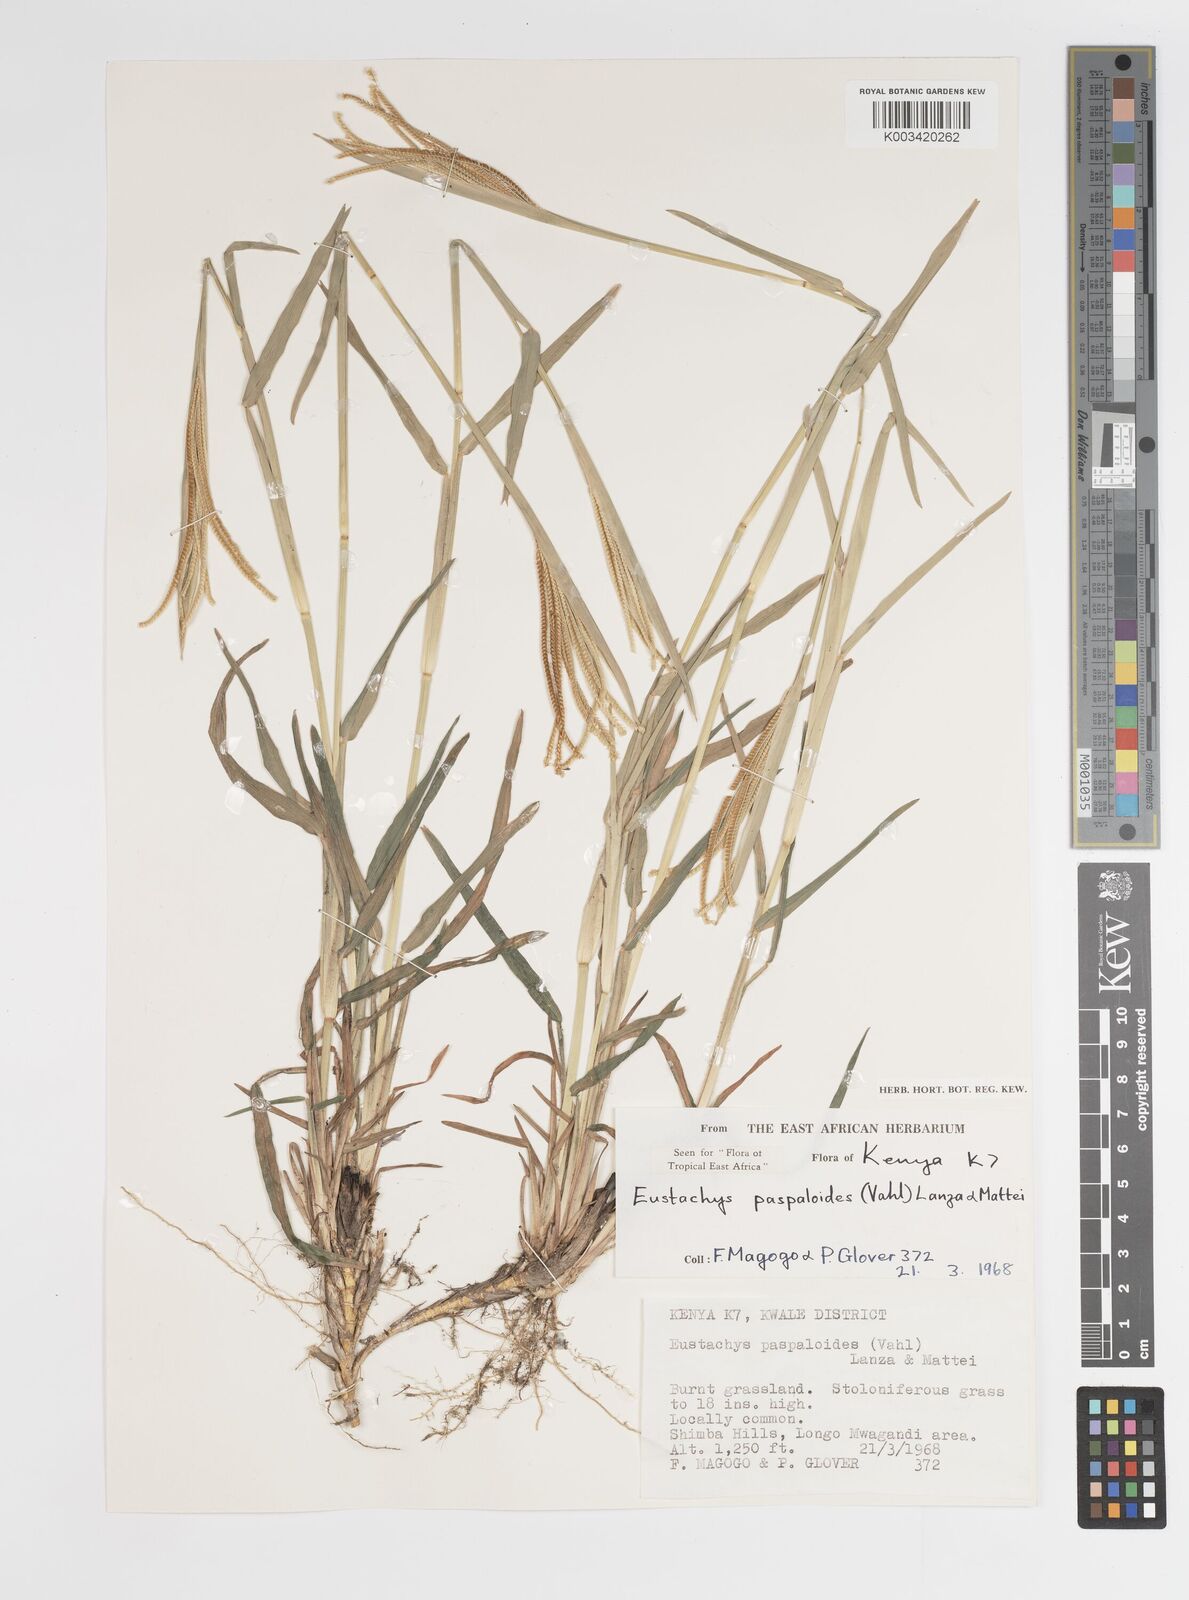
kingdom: Plantae
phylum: Tracheophyta
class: Liliopsida
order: Poales
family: Poaceae
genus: Eustachys
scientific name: Eustachys paspaloides
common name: Caribbean fingergrass
